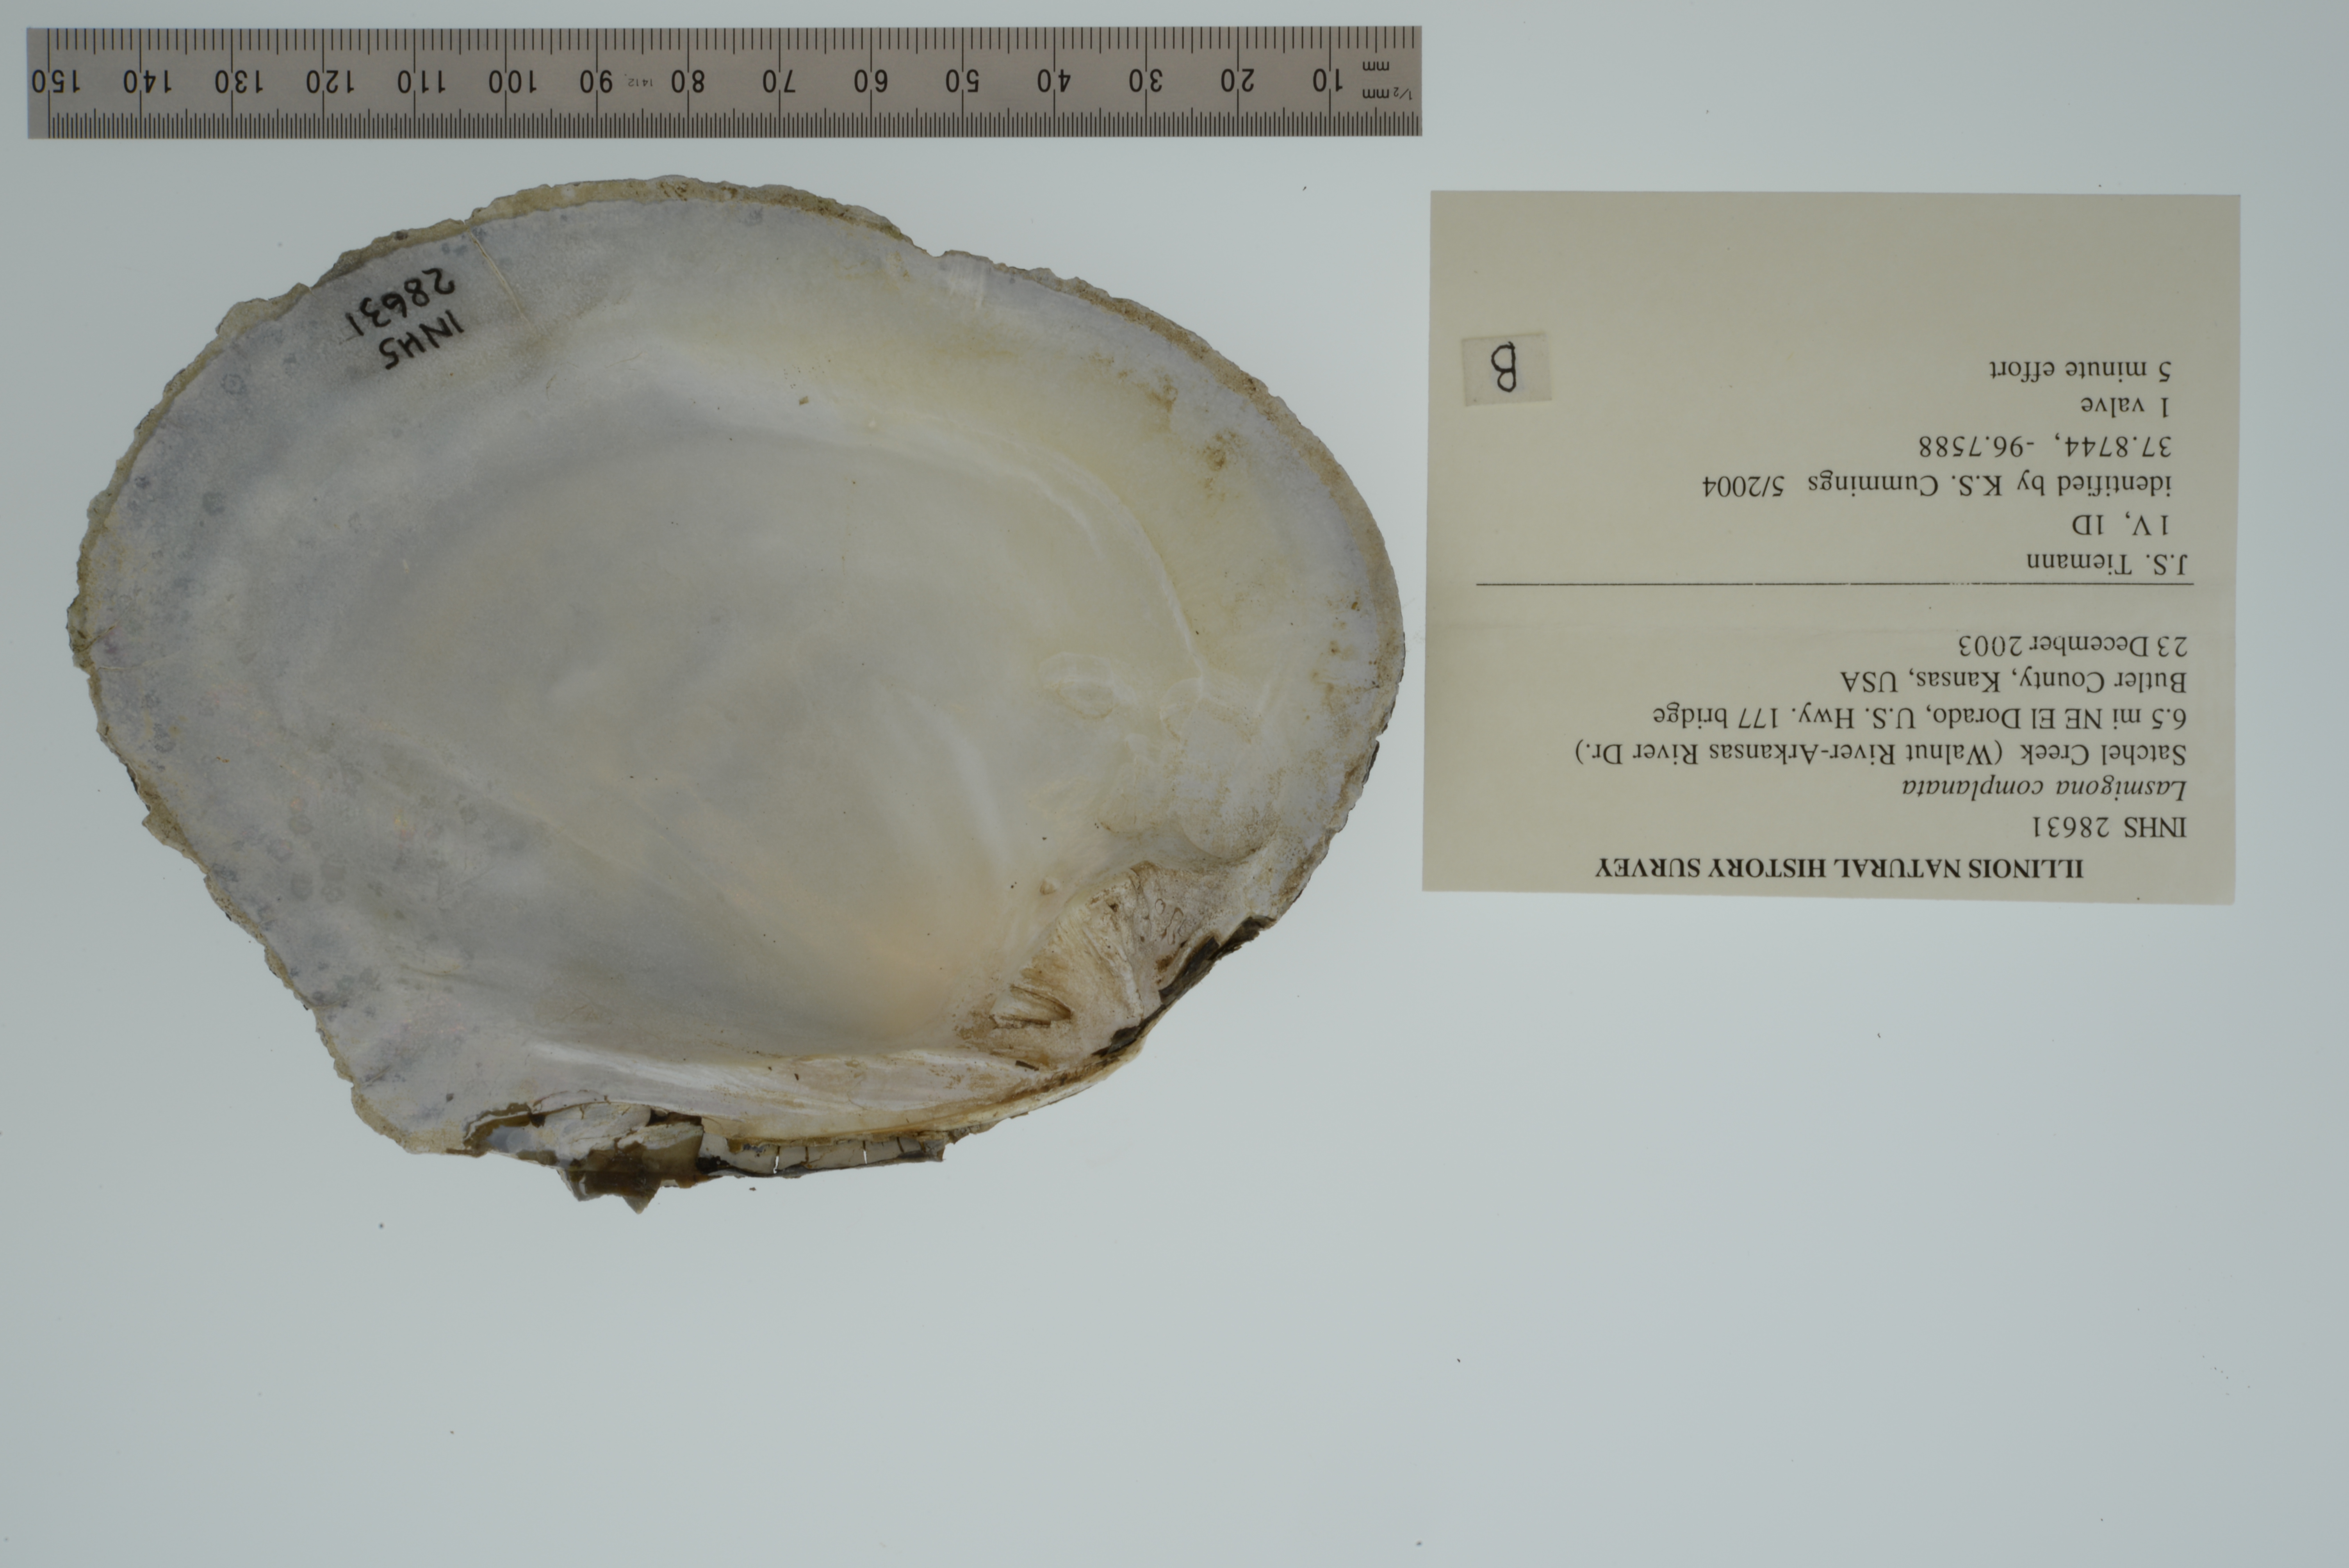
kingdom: Animalia
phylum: Mollusca
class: Bivalvia
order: Unionida
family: Unionidae
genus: Lasmigona
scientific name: Lasmigona complanata
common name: White heelsplitter
